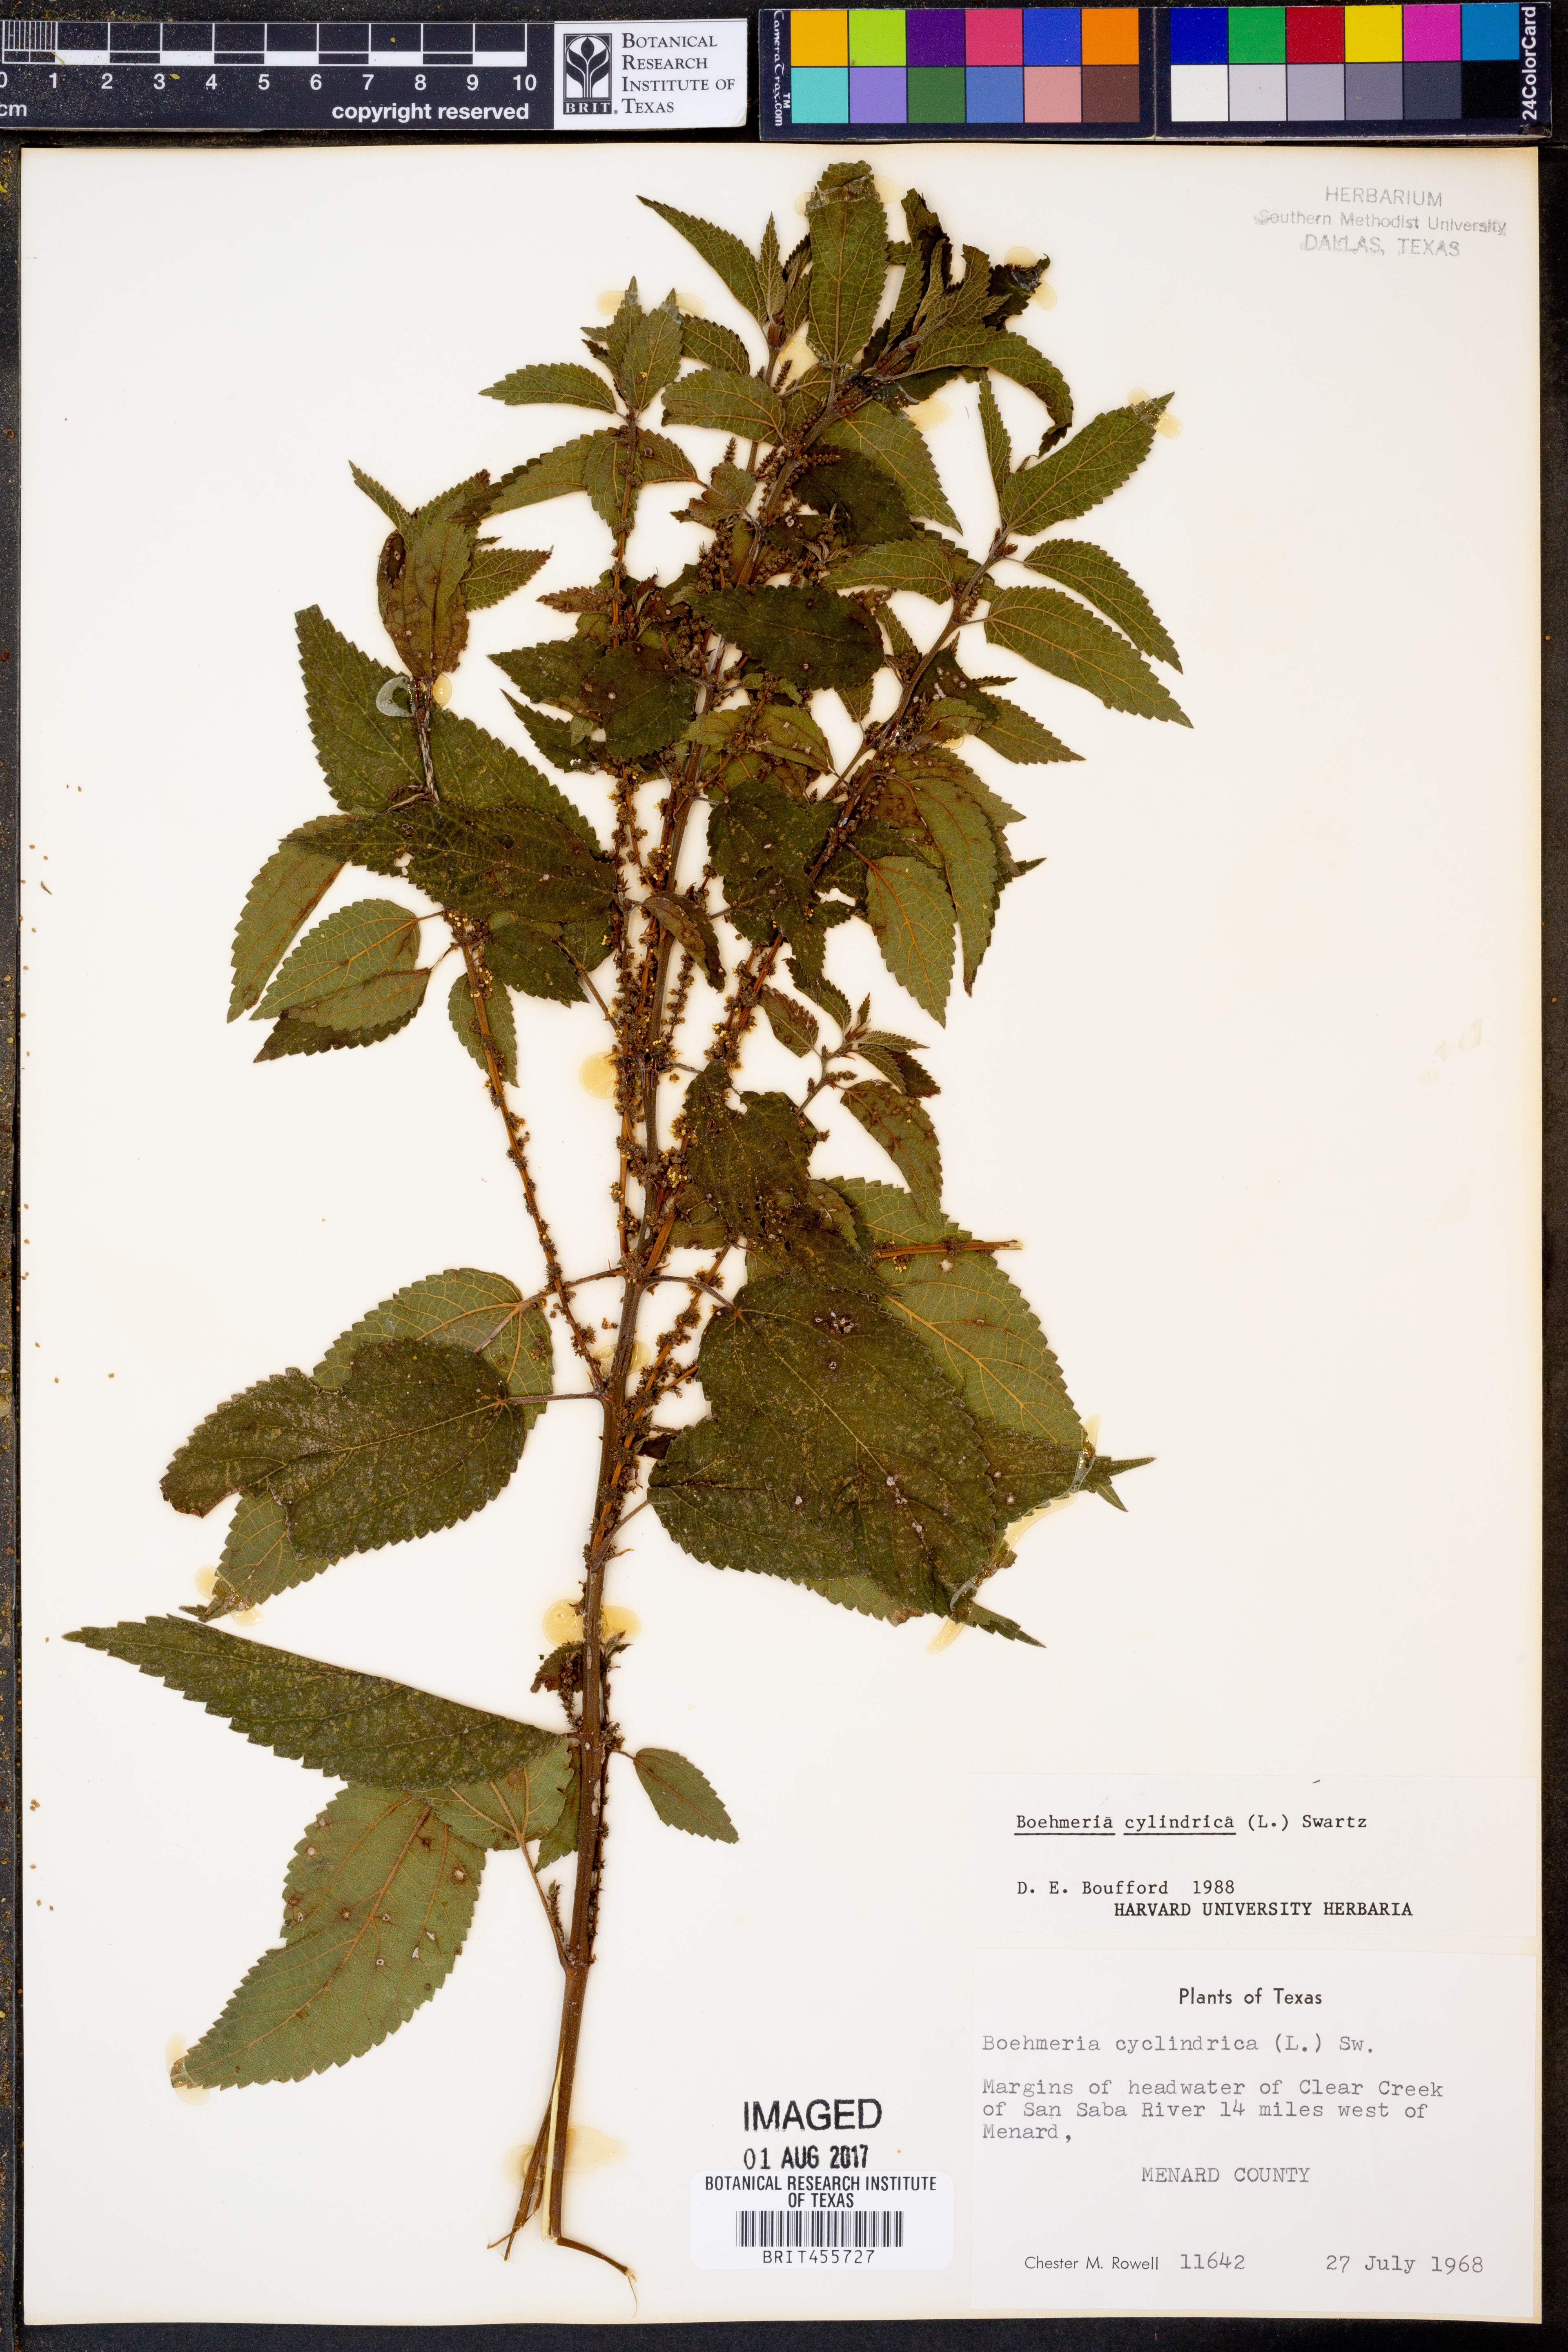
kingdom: Plantae
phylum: Tracheophyta
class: Magnoliopsida
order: Rosales
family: Urticaceae
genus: Boehmeria
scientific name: Boehmeria cylindrica
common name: Bog-hemp
